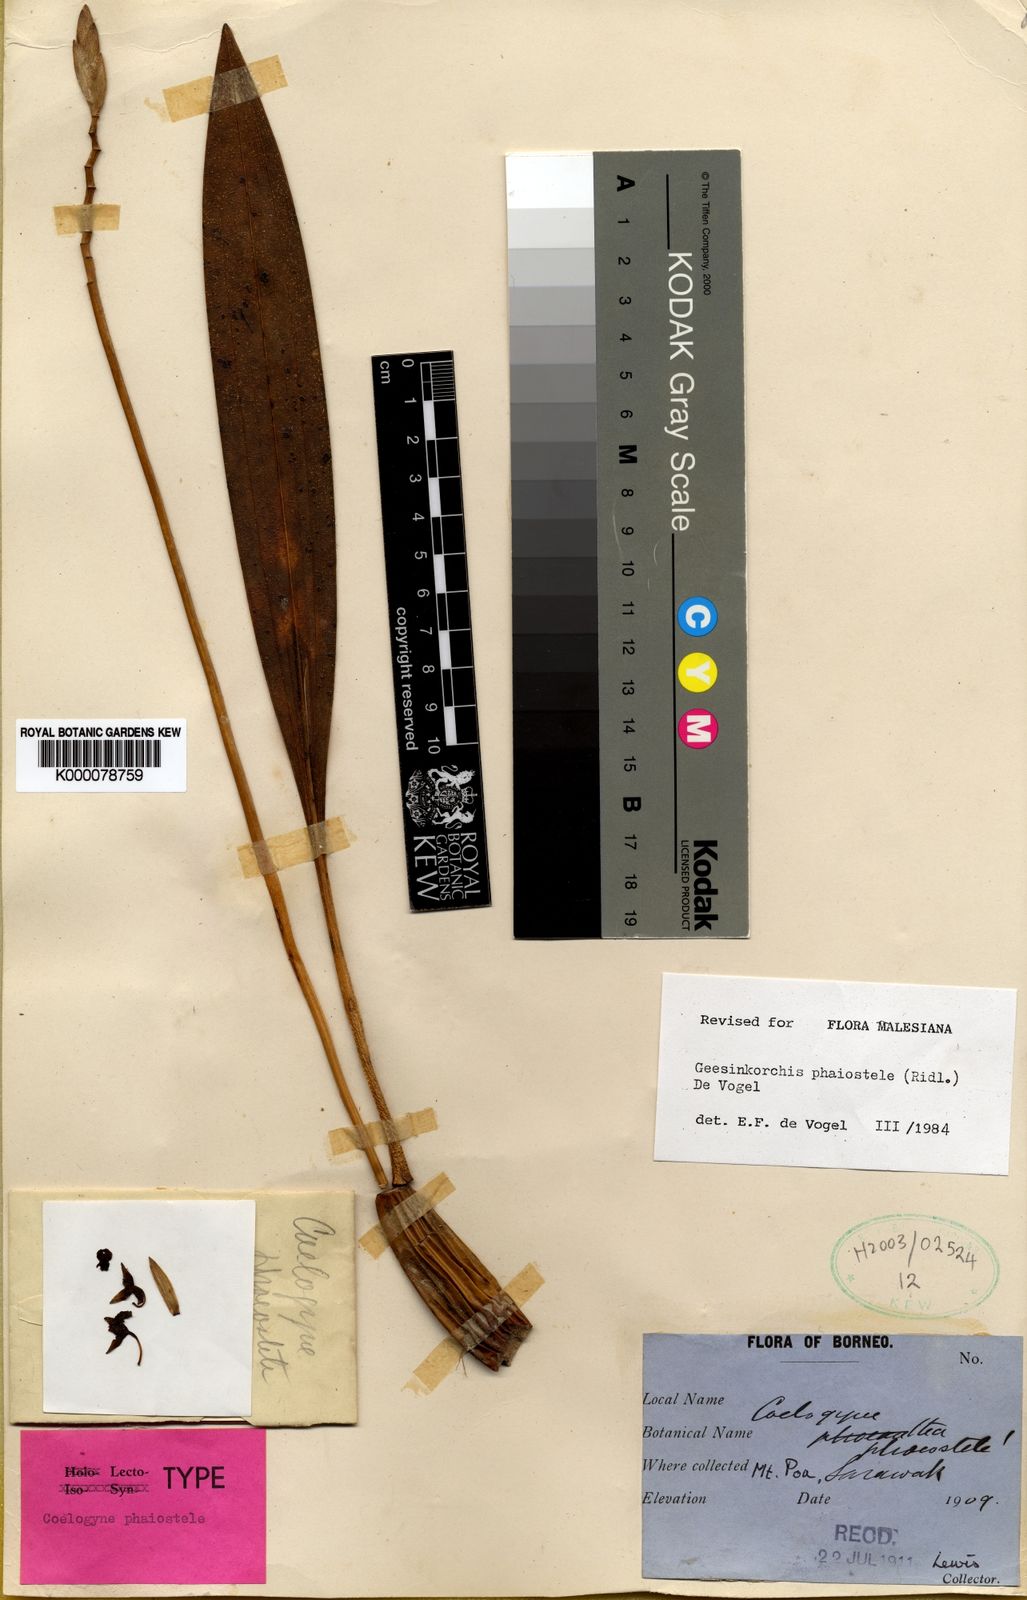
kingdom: Plantae
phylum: Tracheophyta
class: Liliopsida
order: Asparagales
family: Orchidaceae
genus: Coelogyne
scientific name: Coelogyne phaiostele
